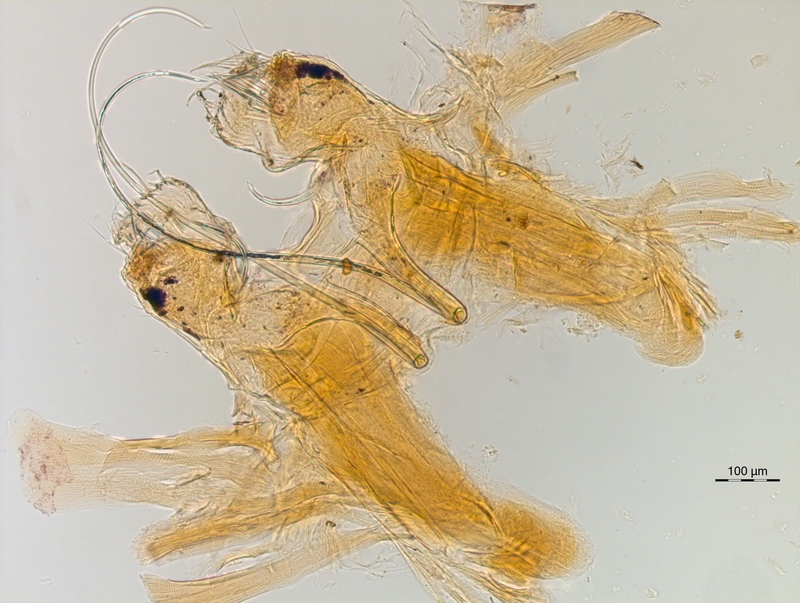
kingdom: Animalia
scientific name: Animalia
